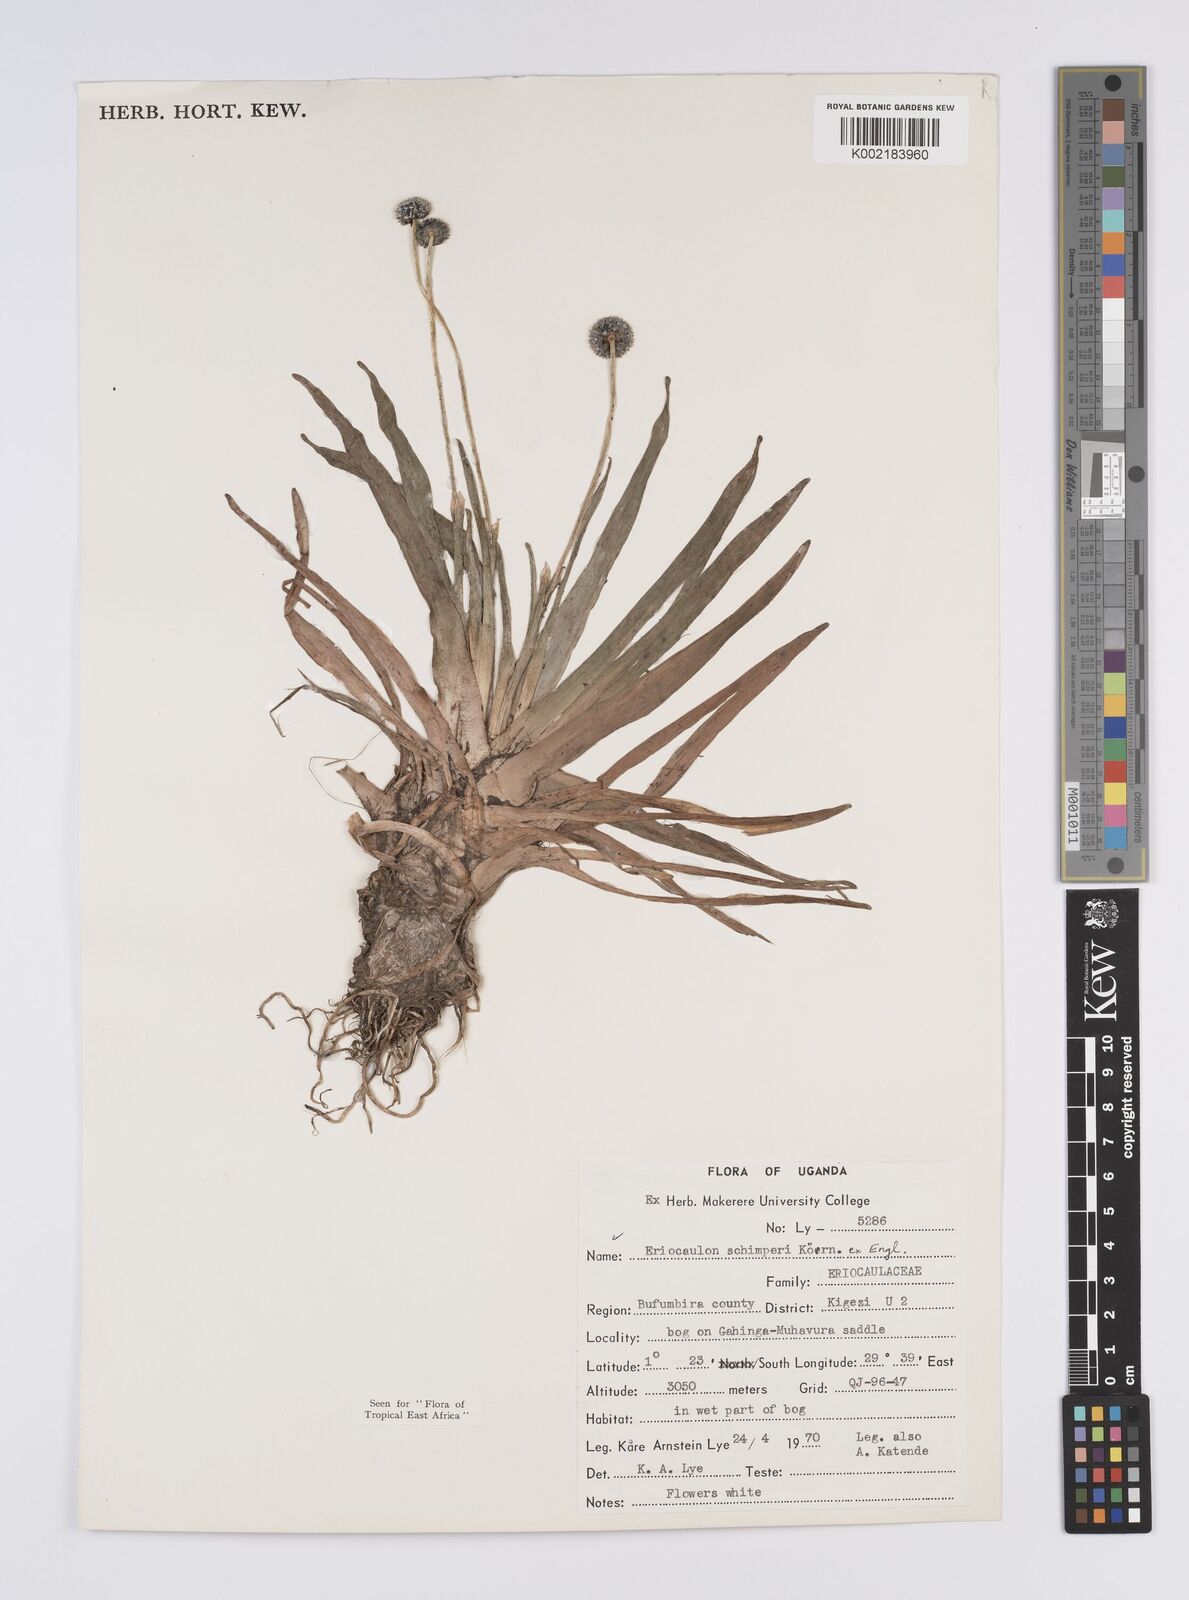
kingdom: Plantae
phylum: Tracheophyta
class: Liliopsida
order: Poales
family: Eriocaulaceae
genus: Eriocaulon
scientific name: Eriocaulon schimperi
